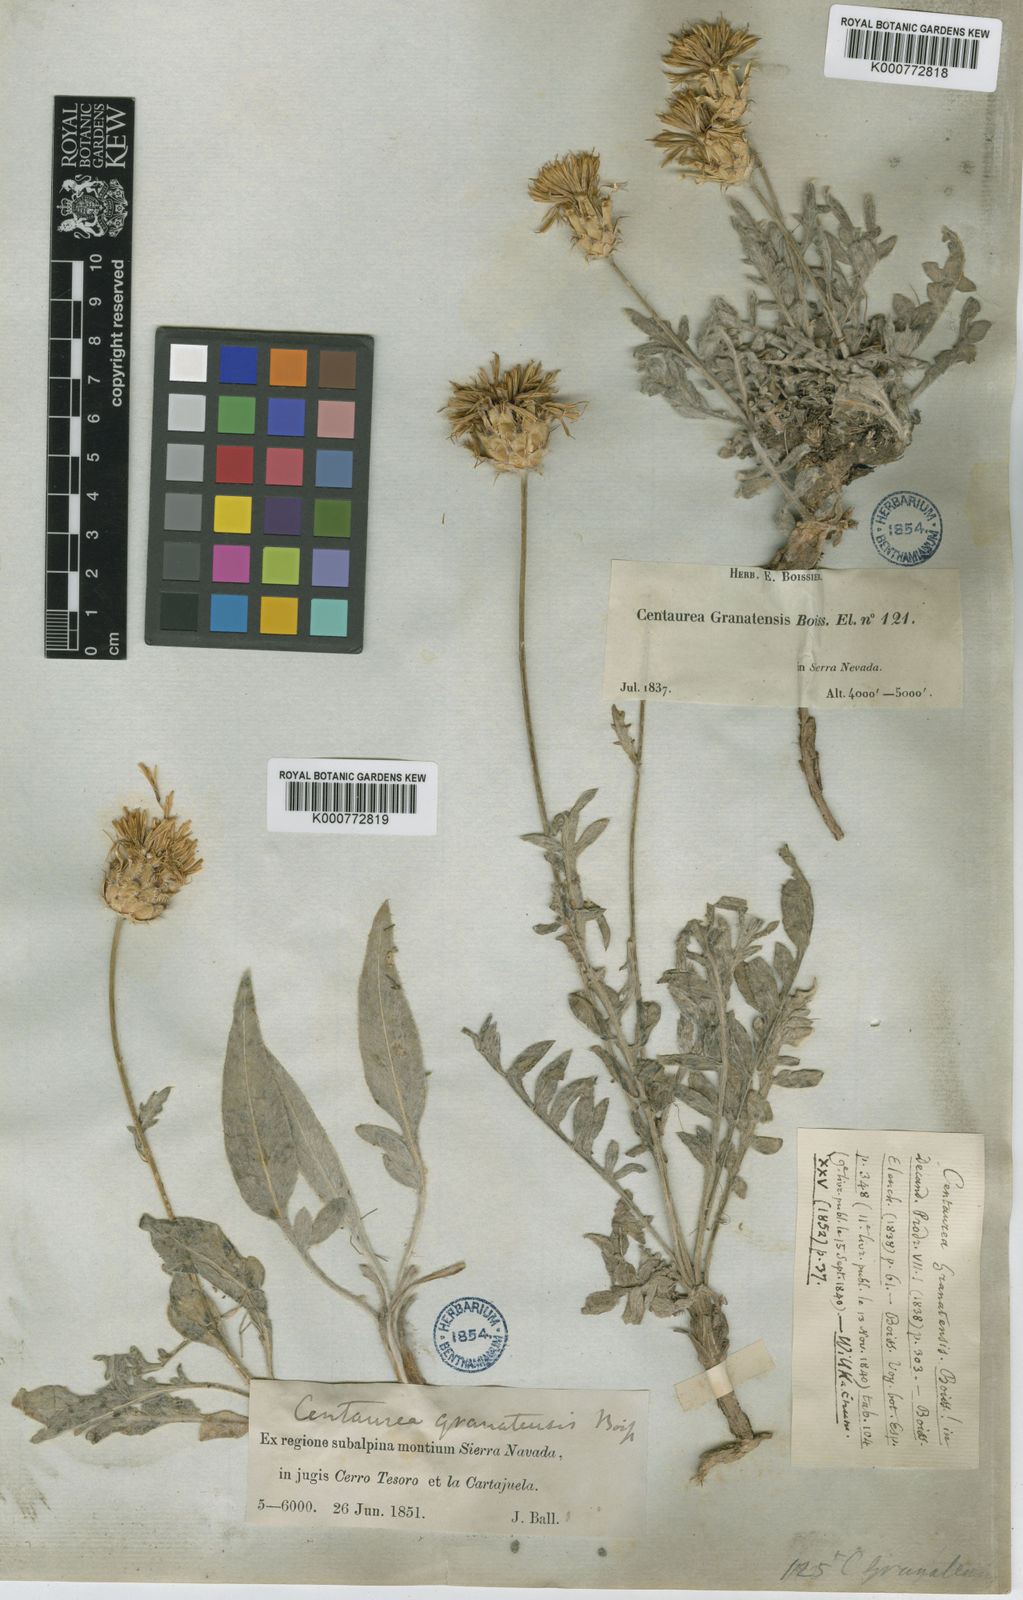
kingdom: Plantae
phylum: Tracheophyta
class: Magnoliopsida
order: Asterales
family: Asteraceae
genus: Centaurea
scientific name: Centaurea granatensis
